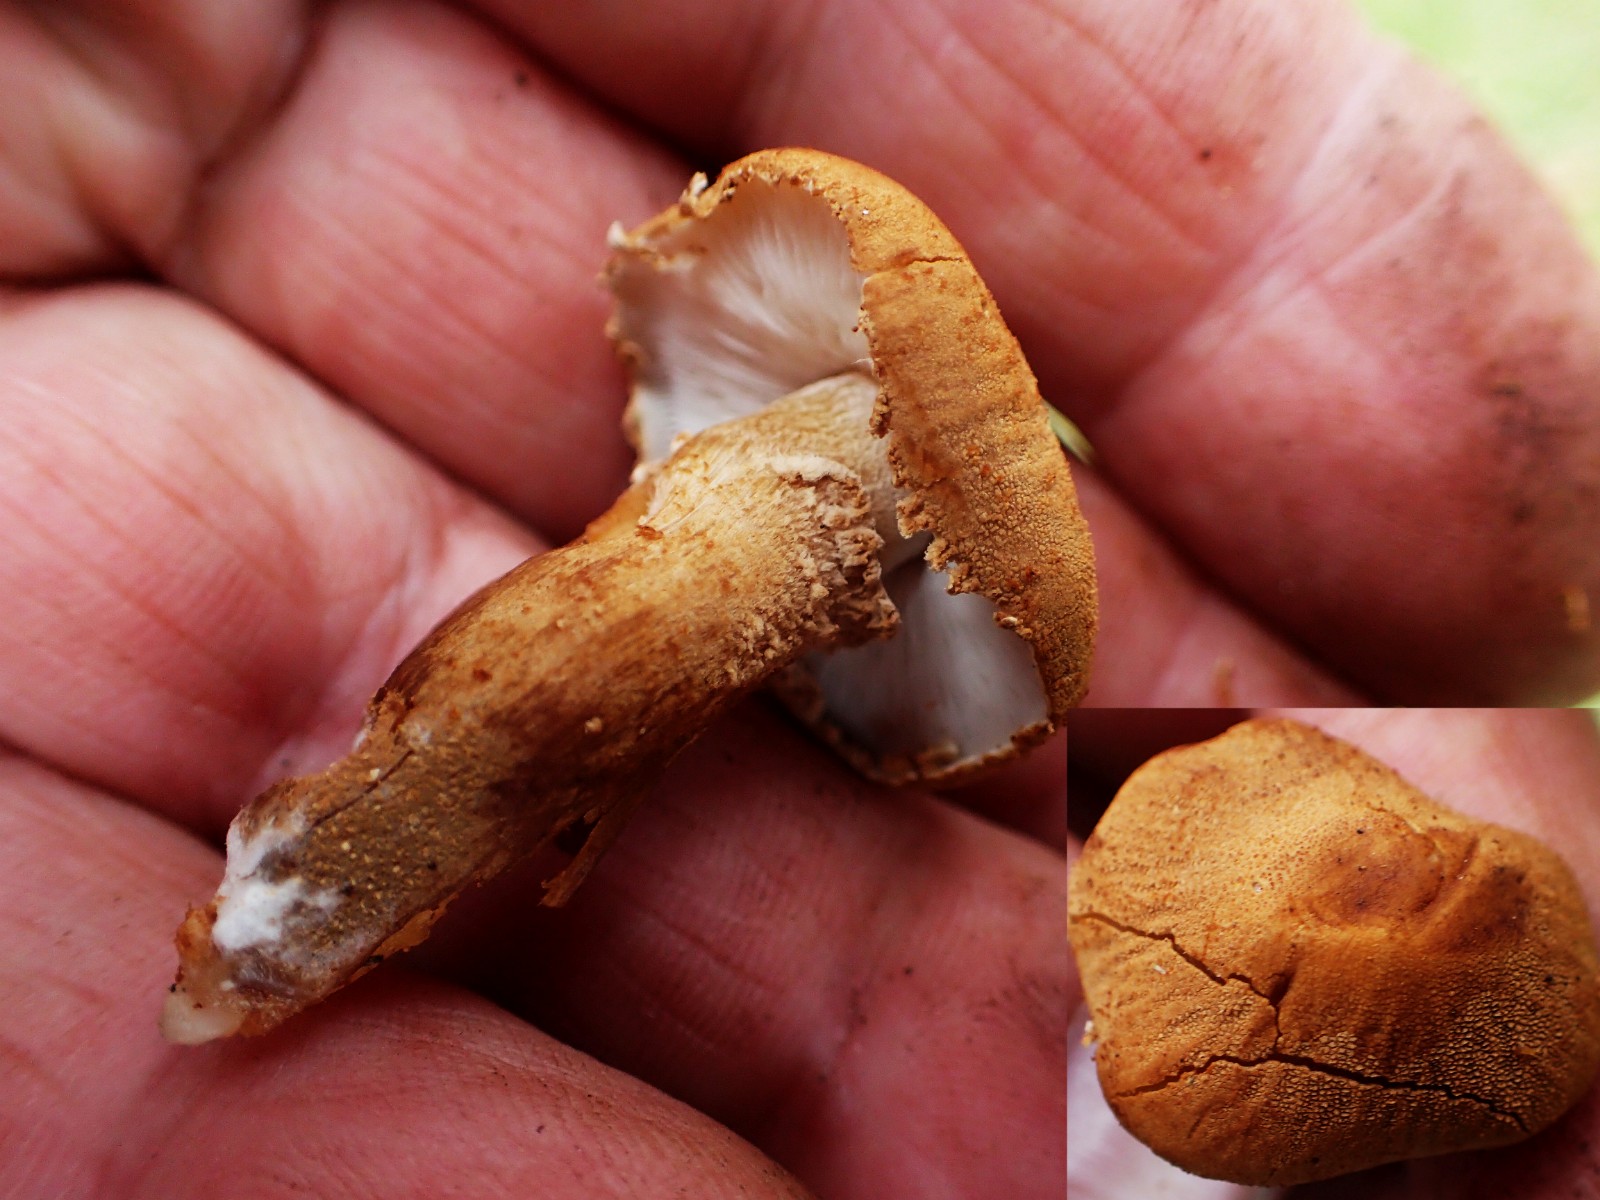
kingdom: Fungi
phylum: Basidiomycota
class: Agaricomycetes
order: Agaricales
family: Tricholomataceae
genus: Cystoderma
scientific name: Cystoderma
